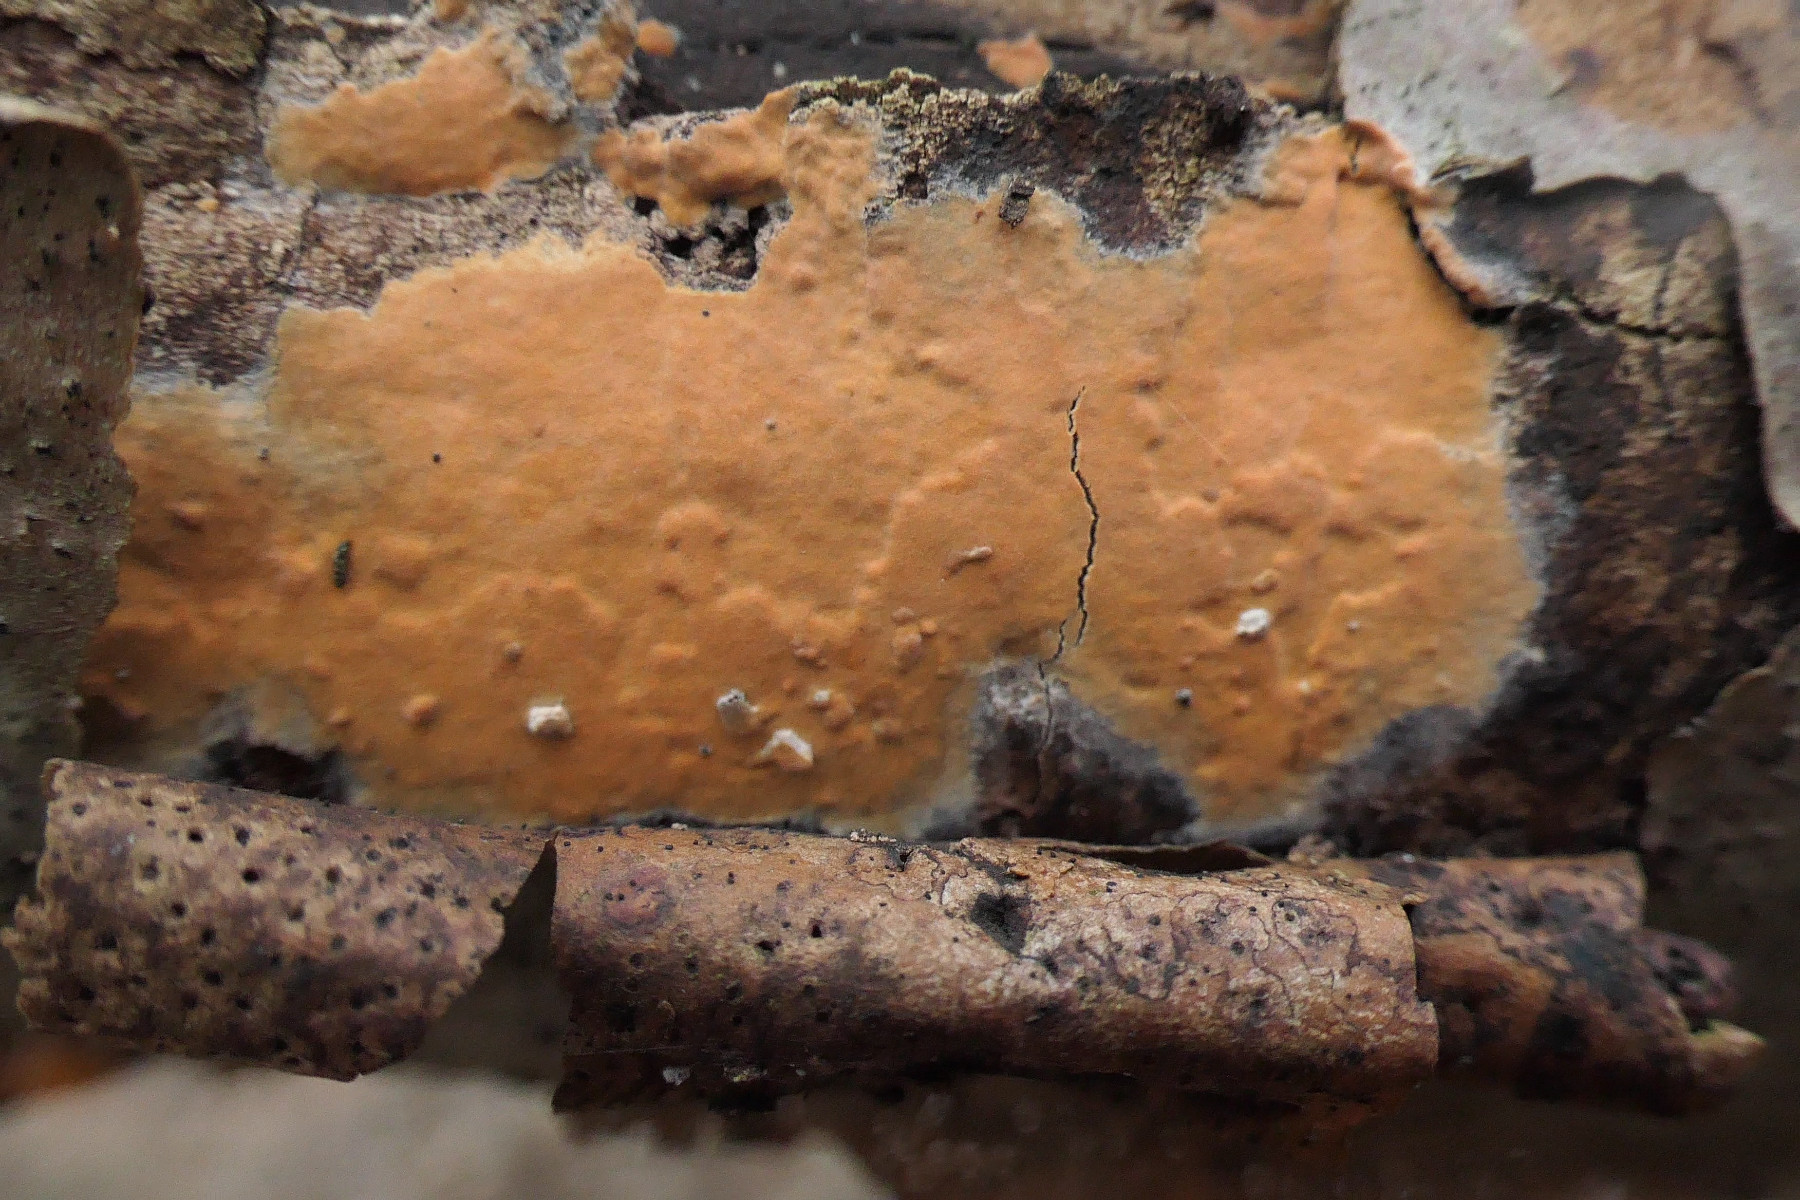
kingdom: Fungi
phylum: Basidiomycota
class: Agaricomycetes
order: Russulales
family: Peniophoraceae
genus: Peniophora
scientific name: Peniophora incarnata
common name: laksefarvet voksskind
